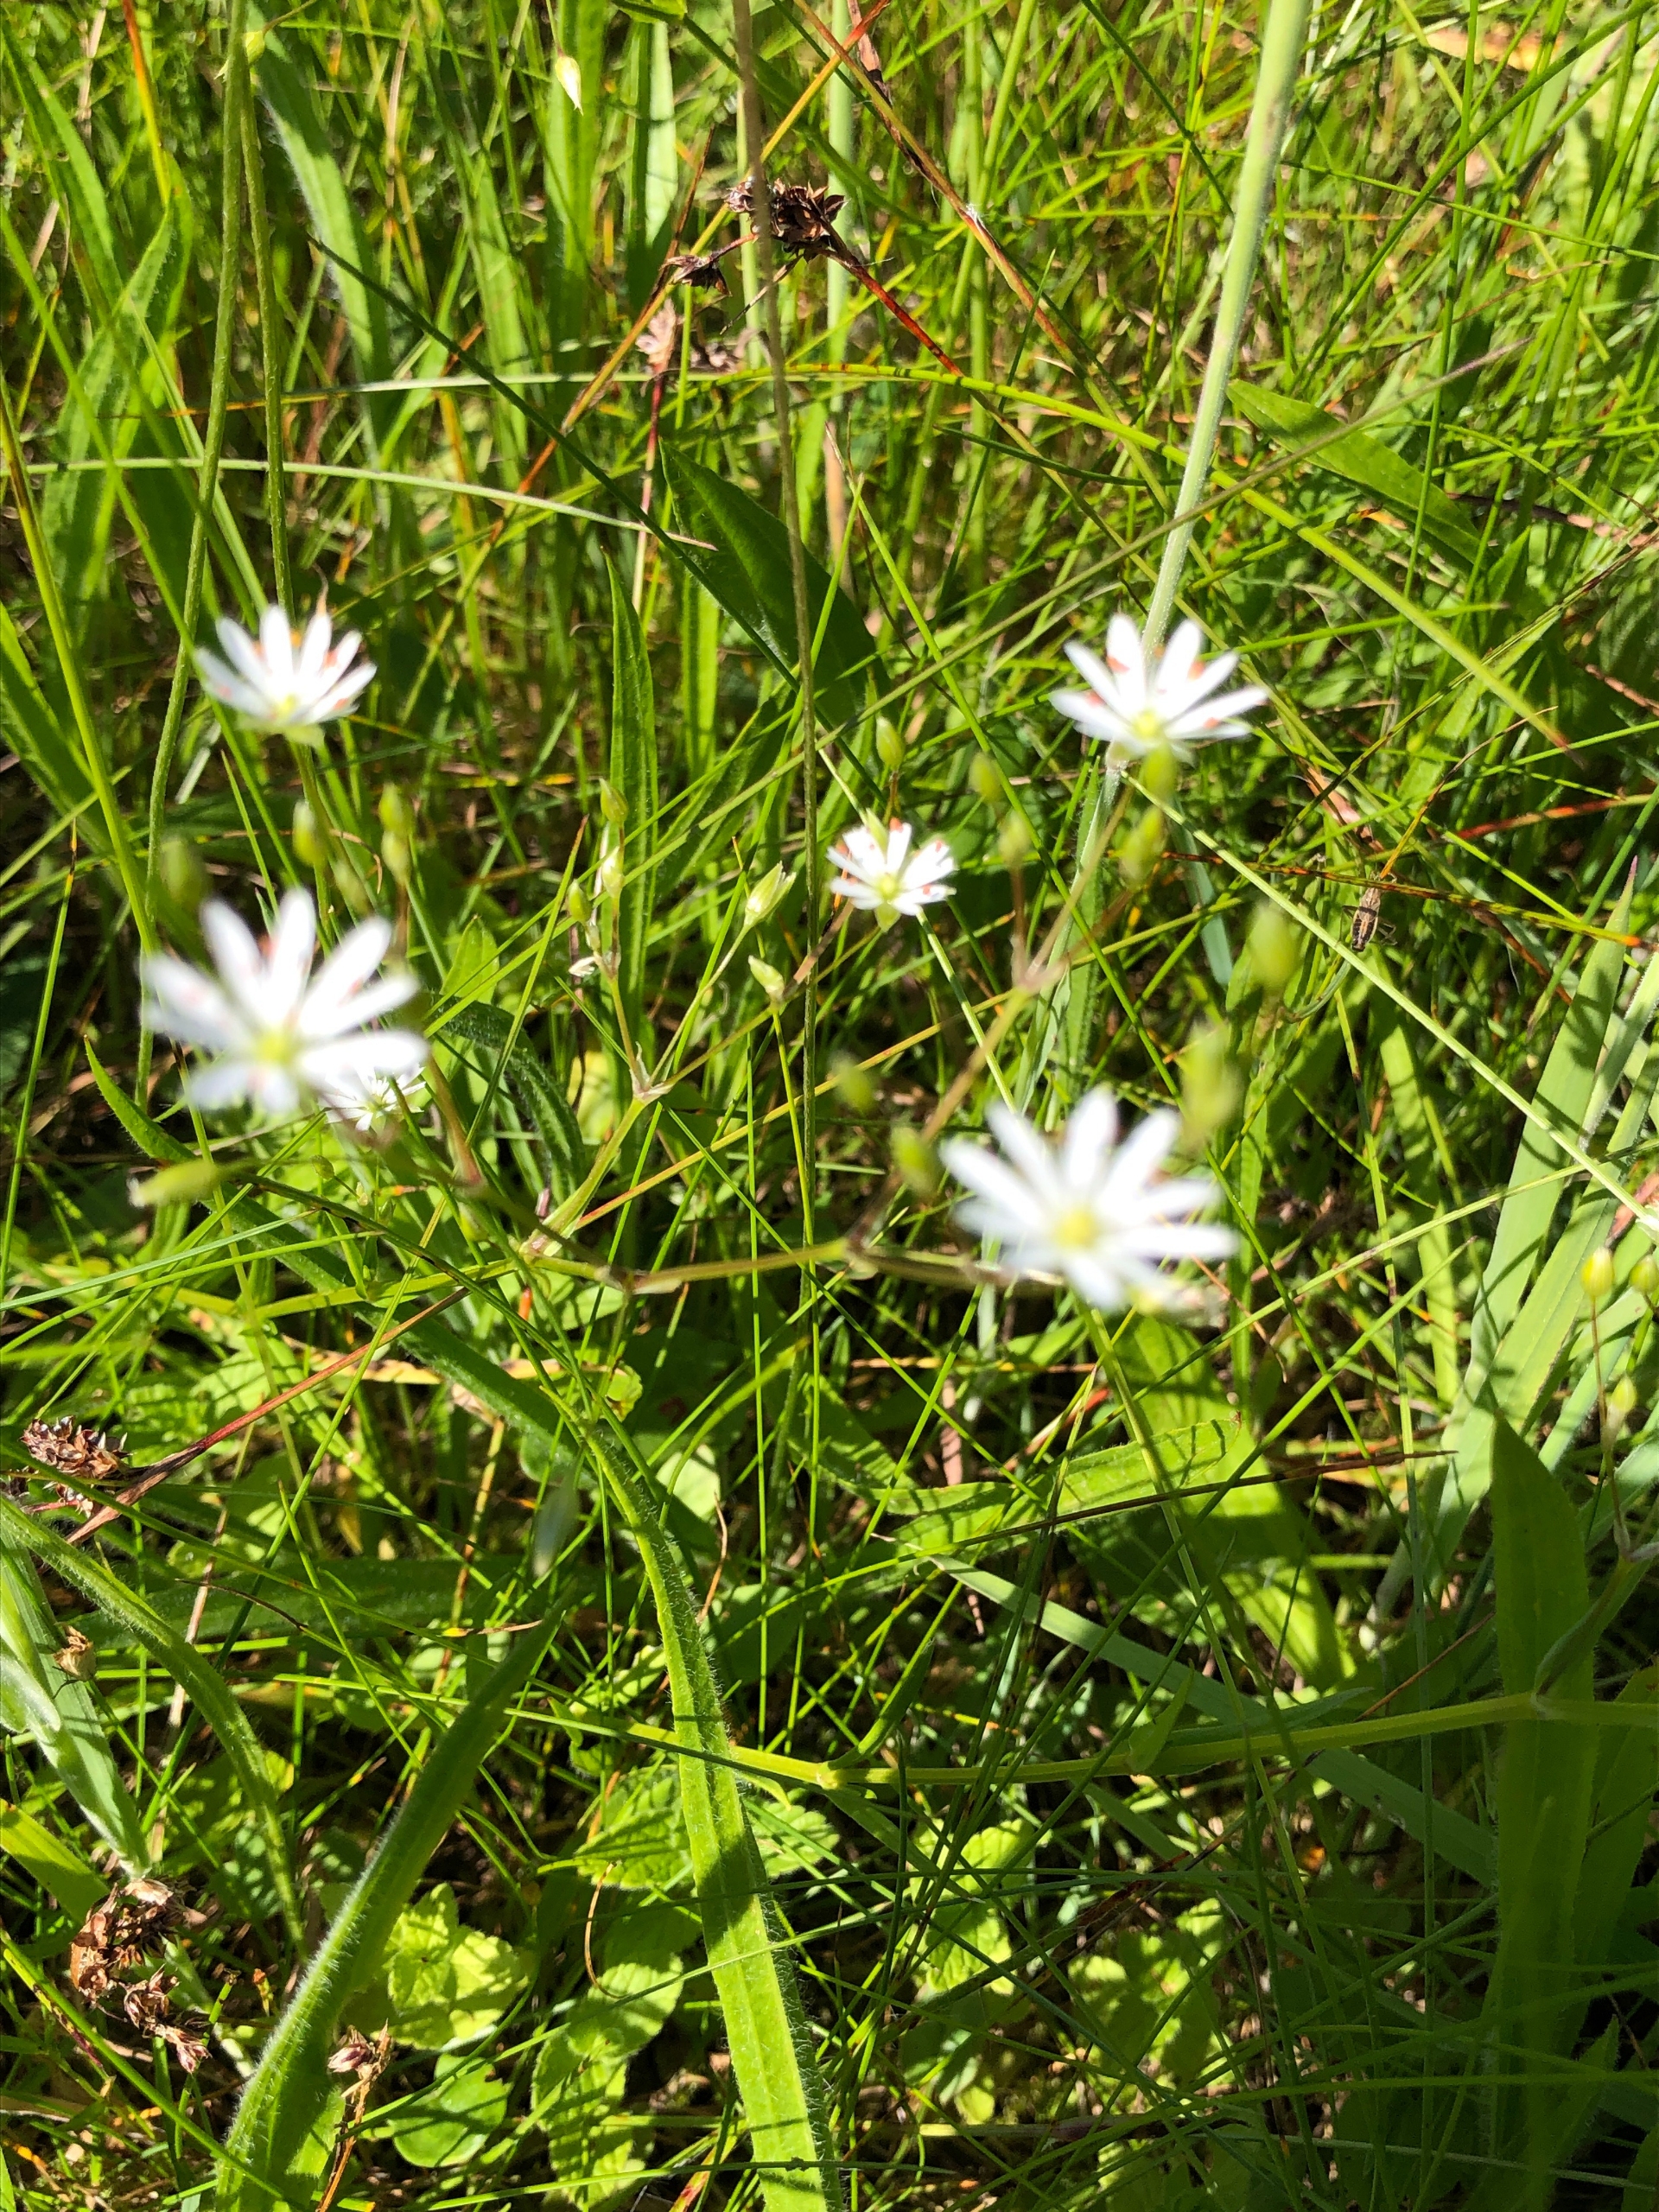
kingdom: Plantae
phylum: Tracheophyta
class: Magnoliopsida
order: Caryophyllales
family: Caryophyllaceae
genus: Stellaria
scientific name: Stellaria graminea
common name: Græsbladet fladstjerne
